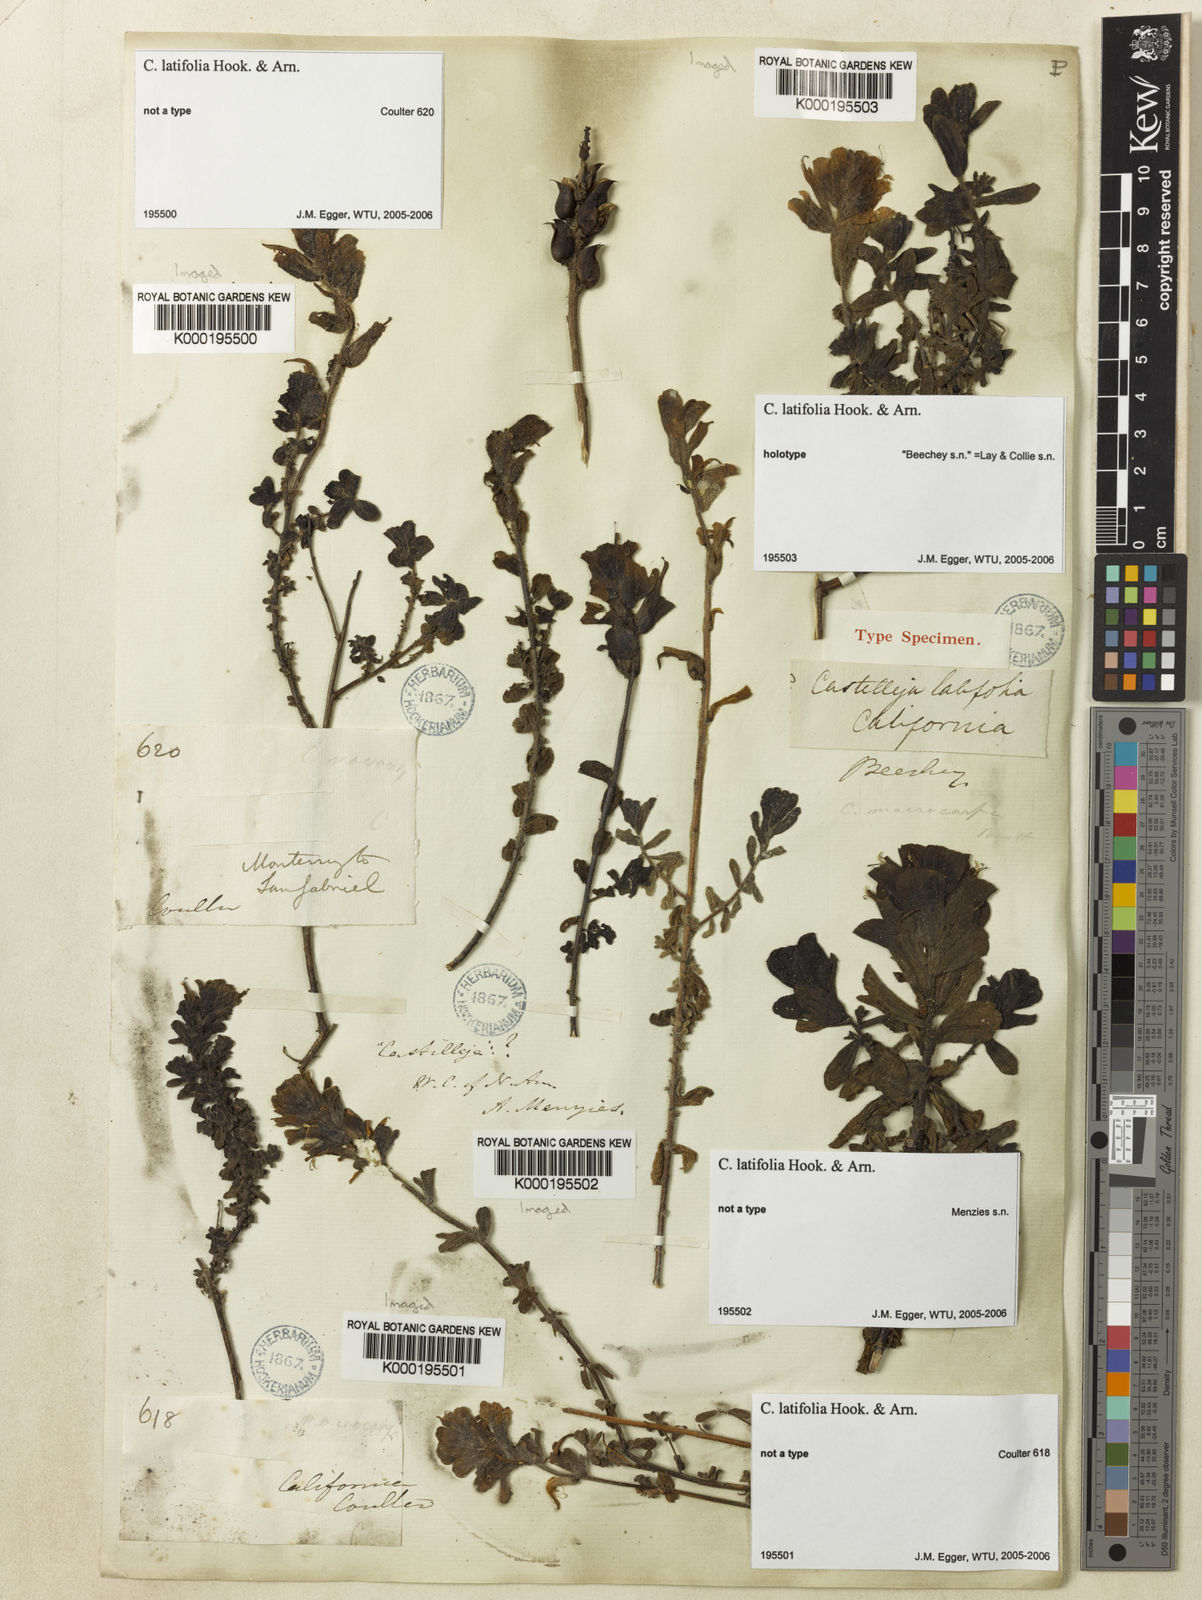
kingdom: Plantae
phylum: Tracheophyta
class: Magnoliopsida
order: Lamiales
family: Orobanchaceae
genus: Castilleja
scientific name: Castilleja latifolia
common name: Monterey indian paintbrush
